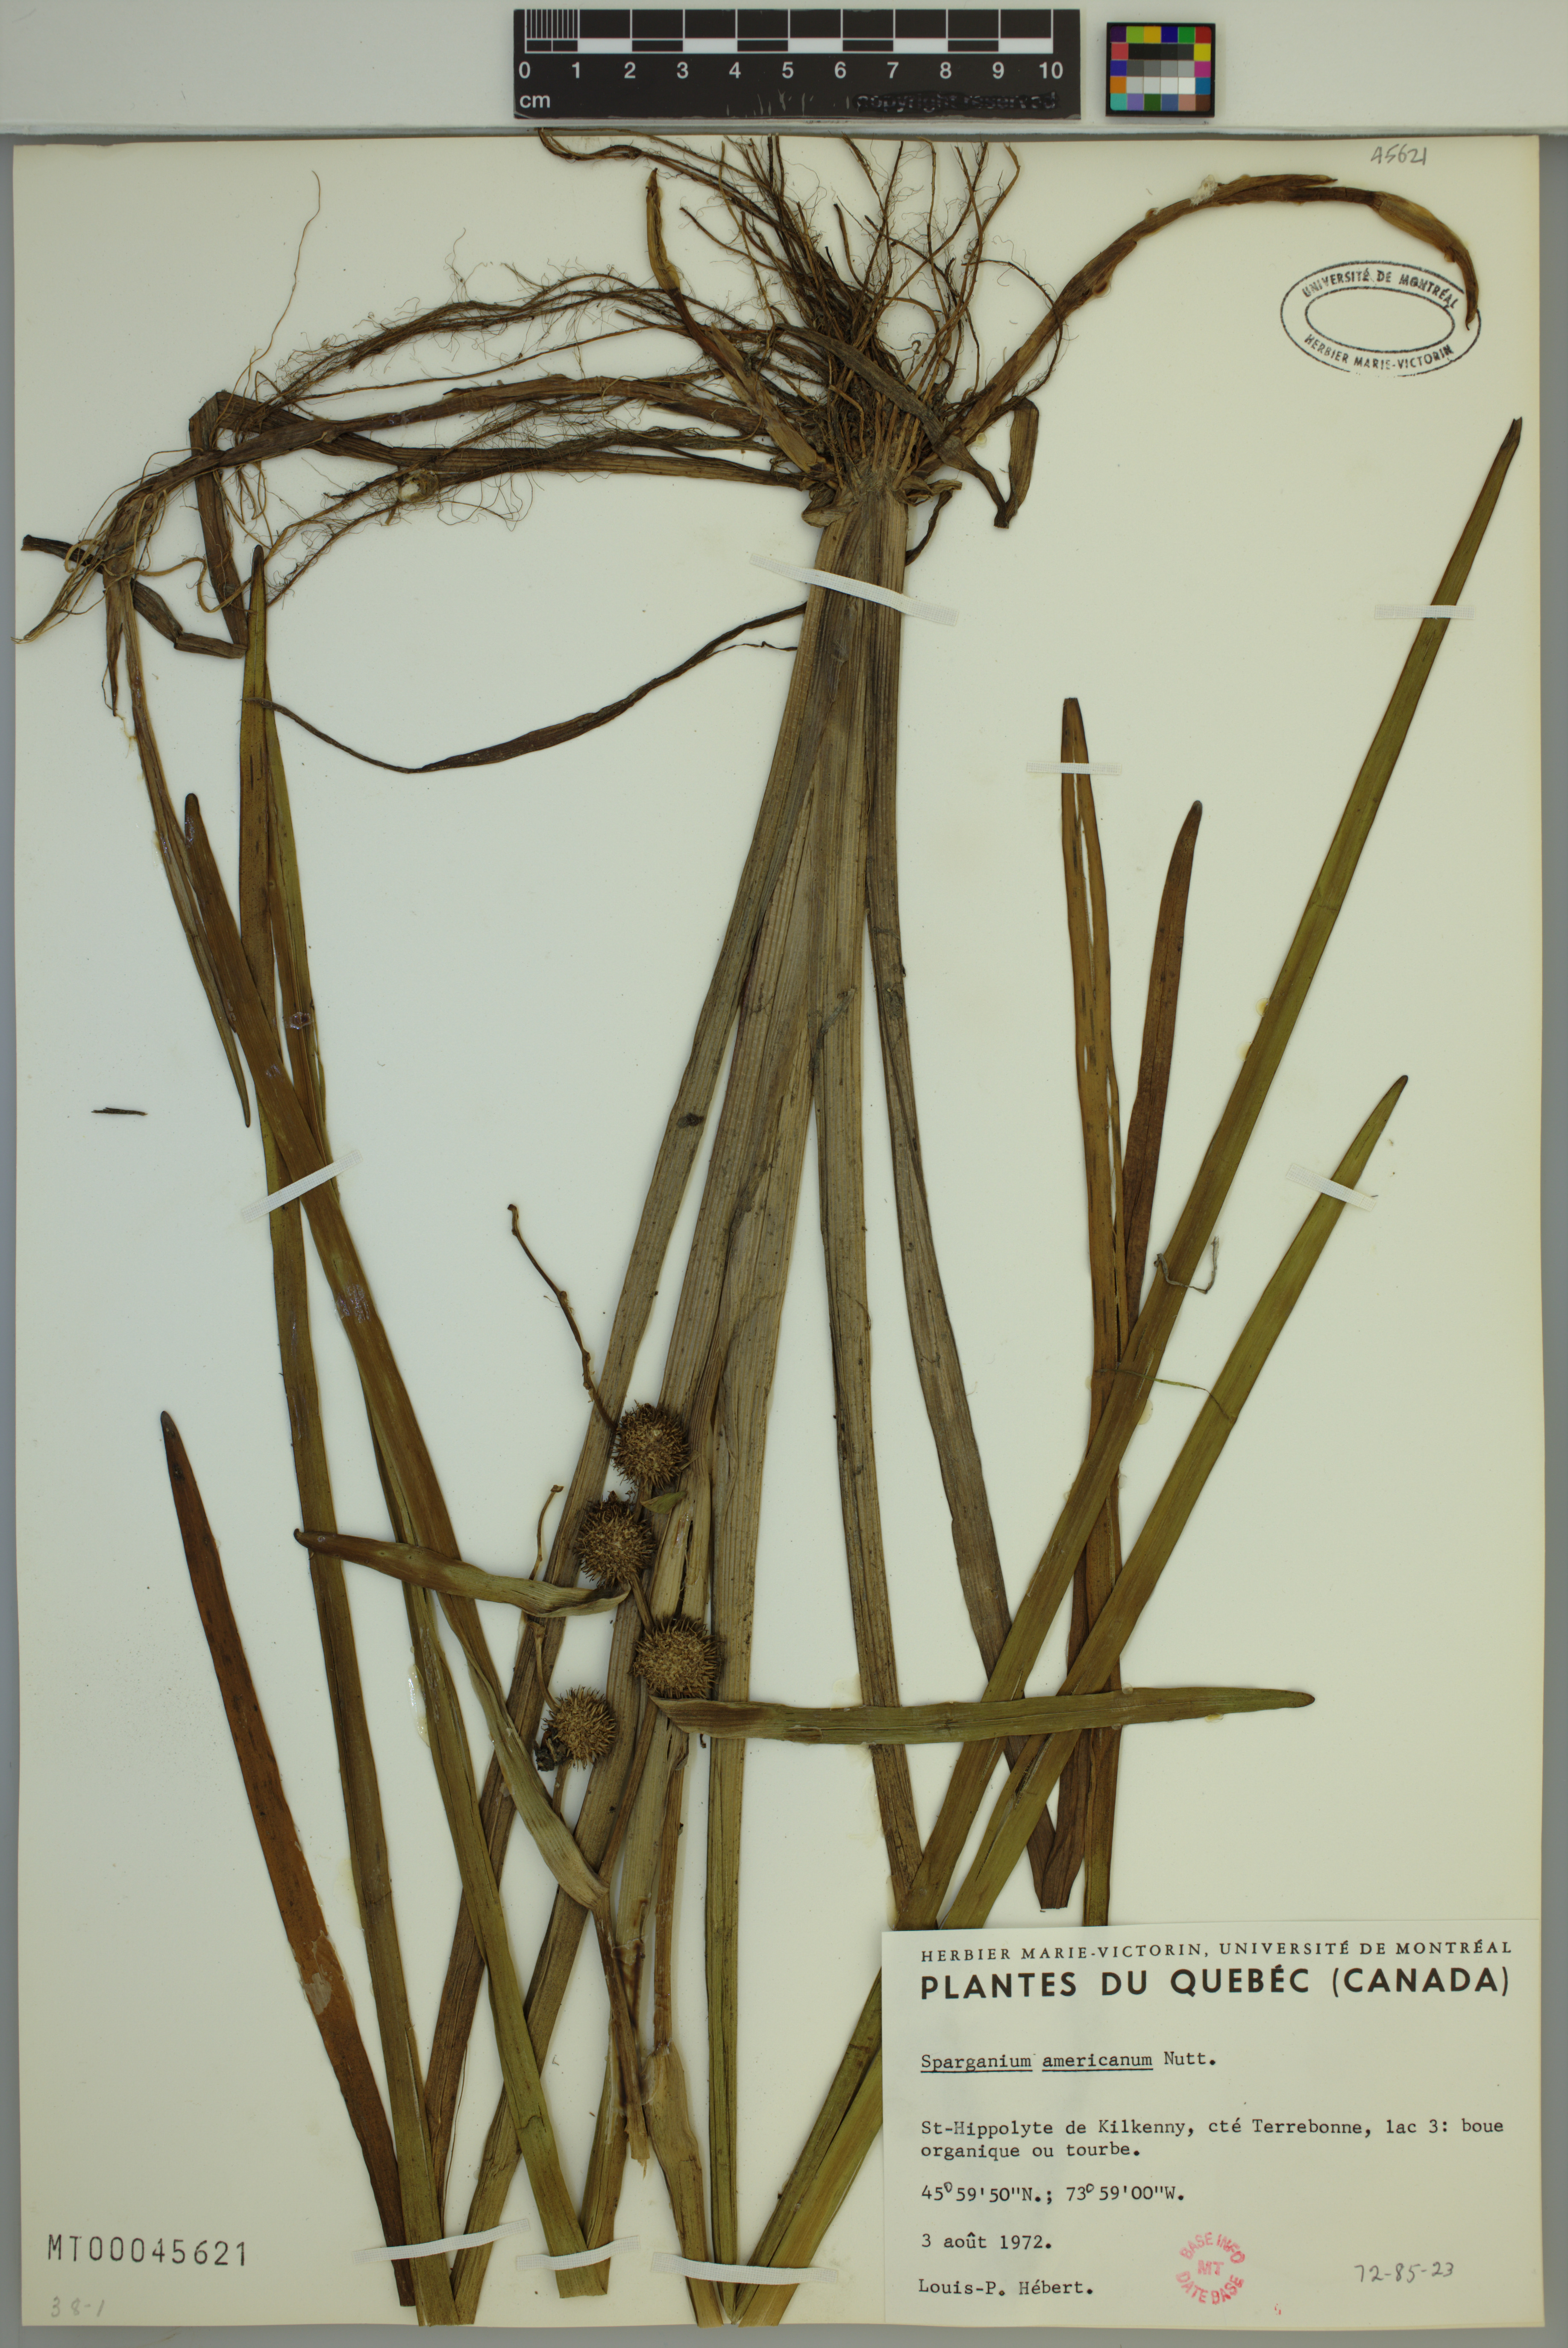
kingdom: Plantae
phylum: Tracheophyta
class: Liliopsida
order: Poales
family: Typhaceae
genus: Sparganium
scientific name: Sparganium americanum
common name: American burreed
